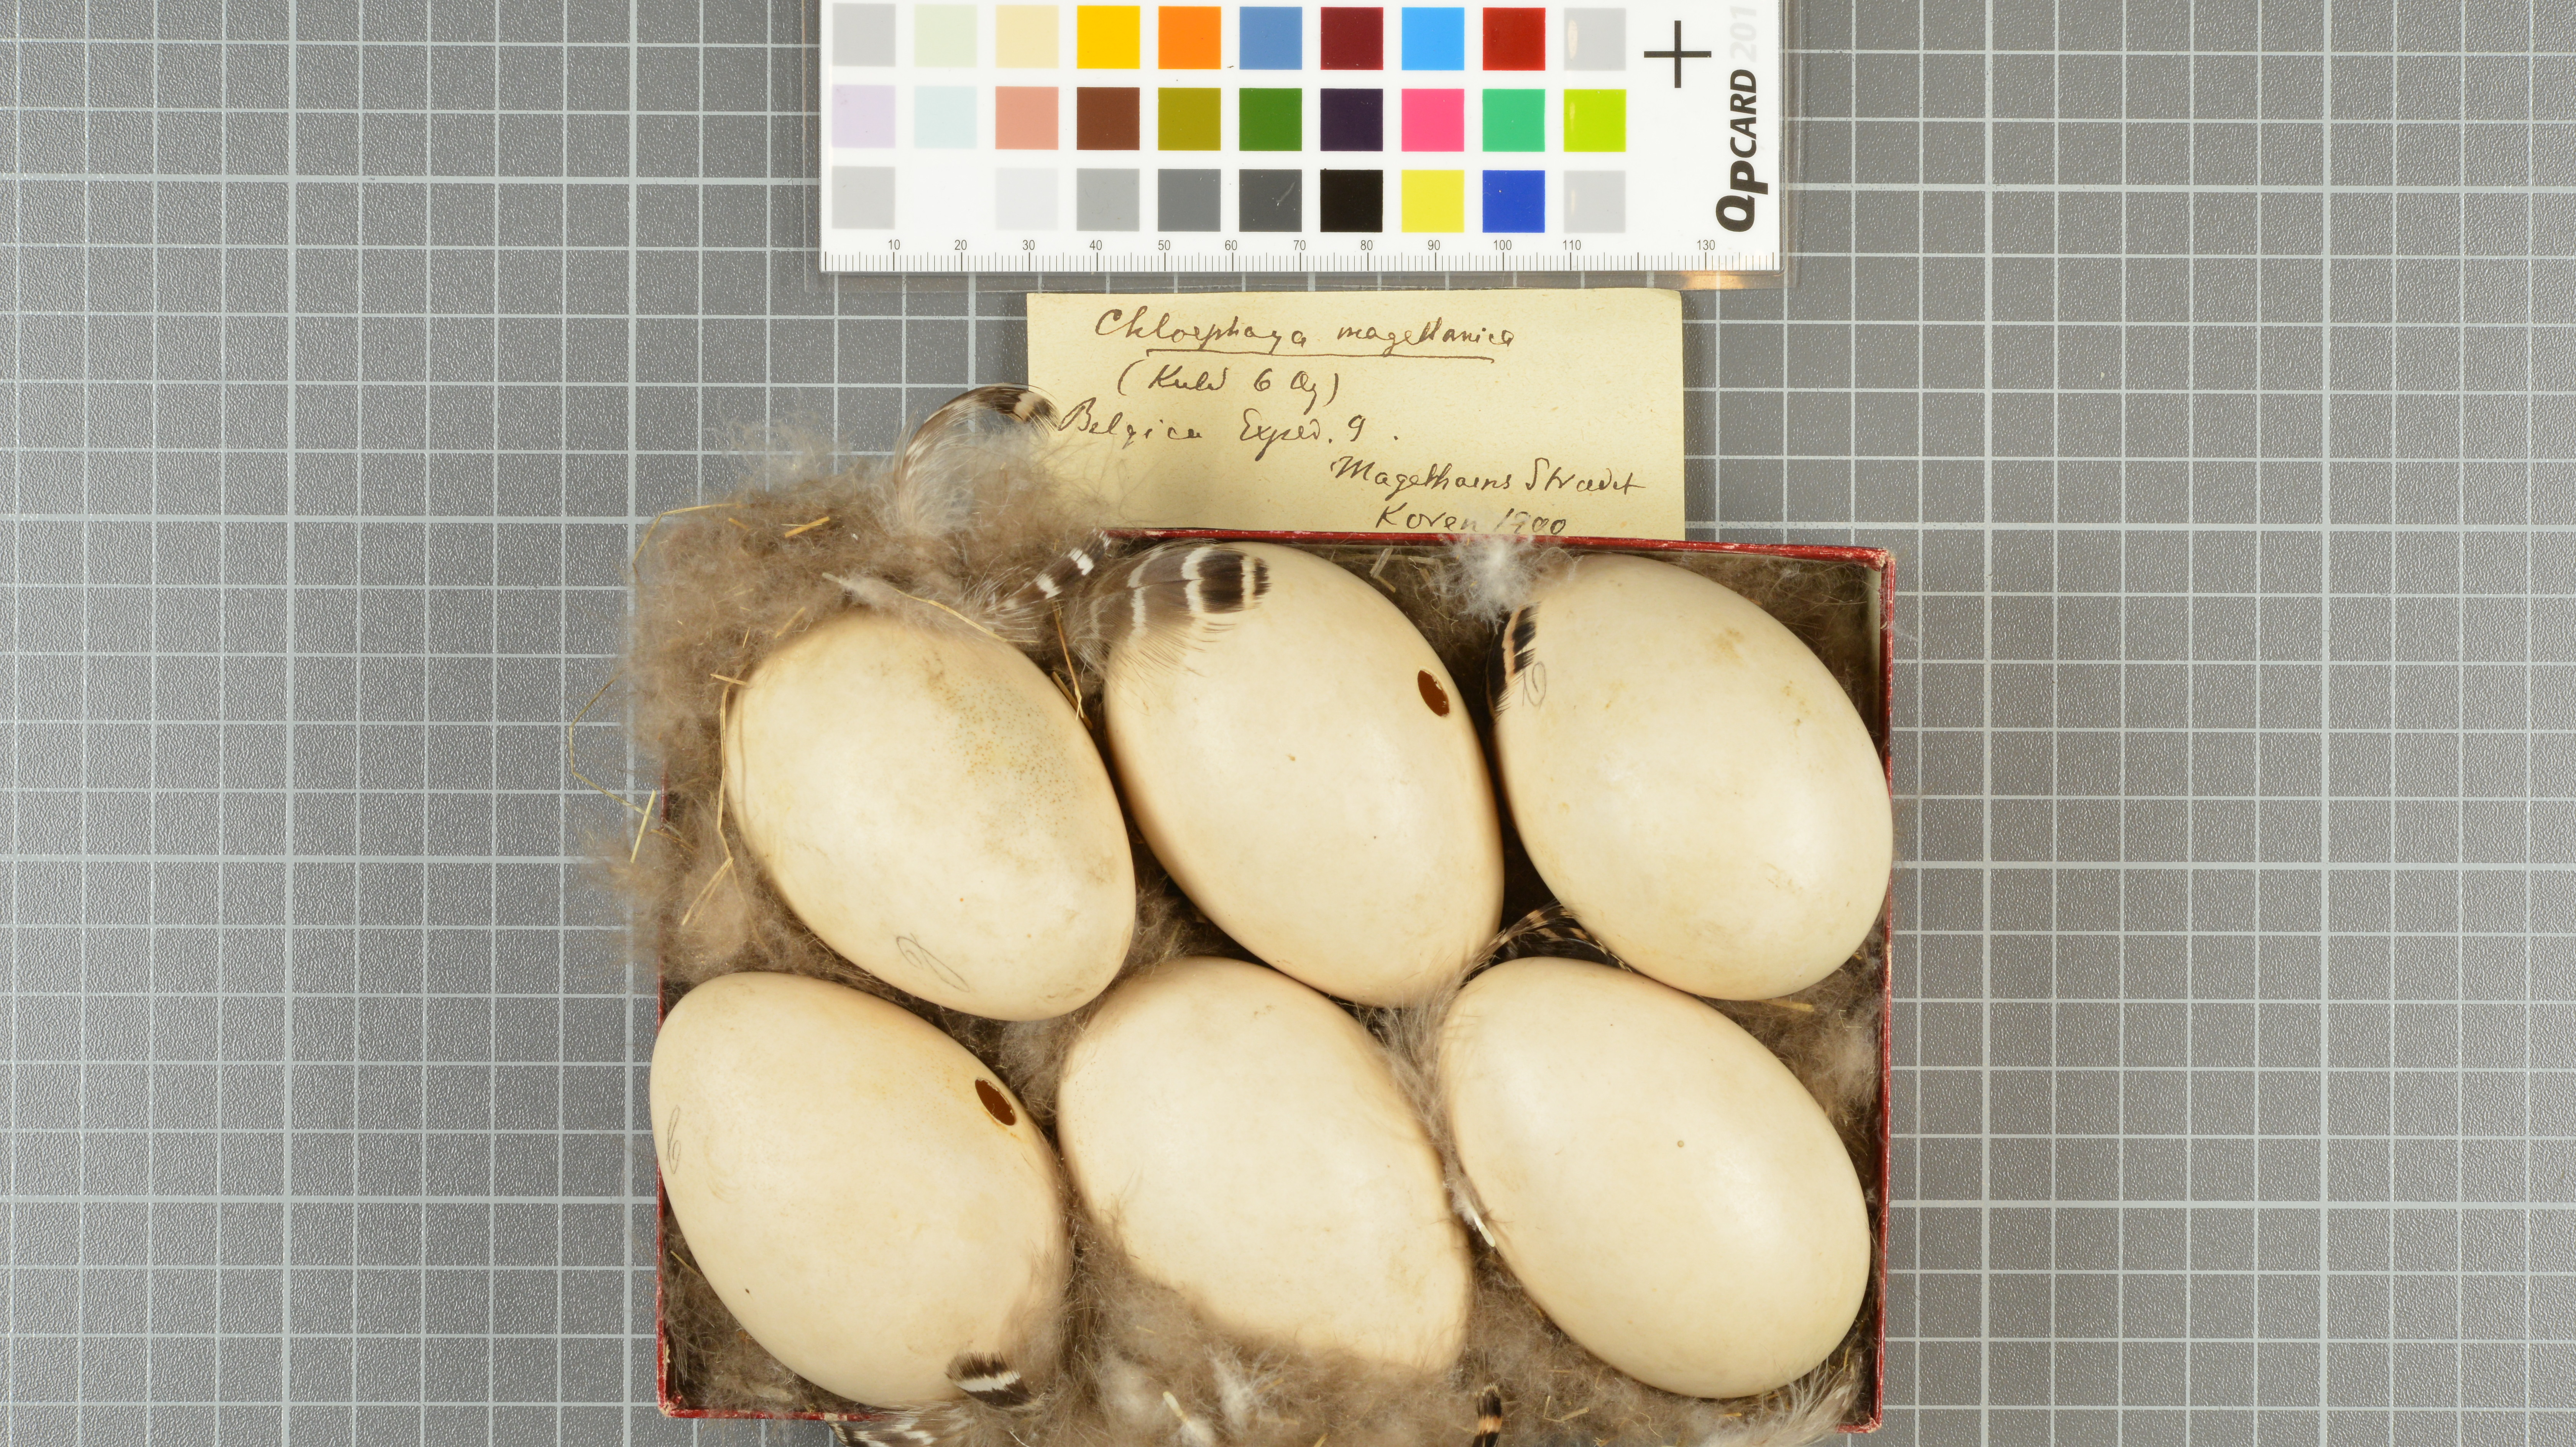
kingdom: Animalia
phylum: Chordata
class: Aves
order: Anseriformes
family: Anatidae
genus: Chloephaga
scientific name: Chloephaga picta
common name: Upland goose
